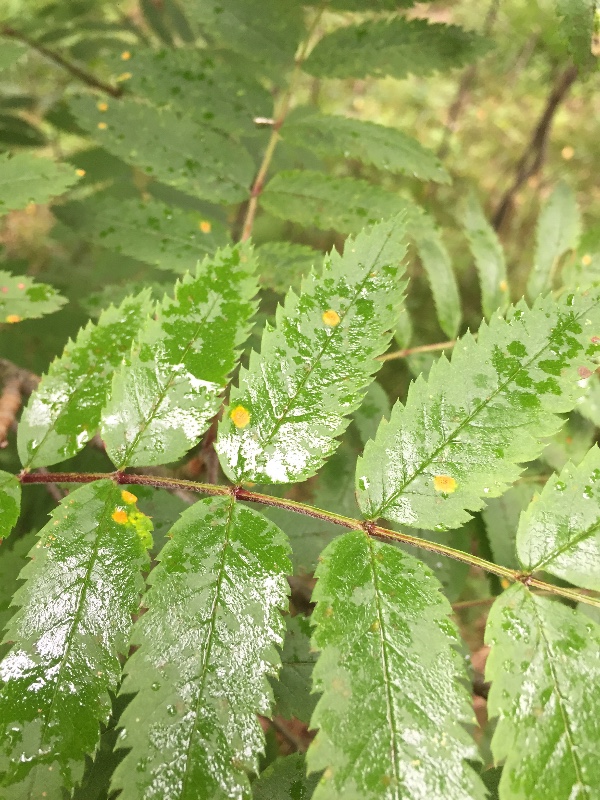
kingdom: Fungi
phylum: Basidiomycota
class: Pucciniomycetes
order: Pucciniales
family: Gymnosporangiaceae
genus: Gymnosporangium
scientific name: Gymnosporangium cornutum
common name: rønnehorn-bævrerust
